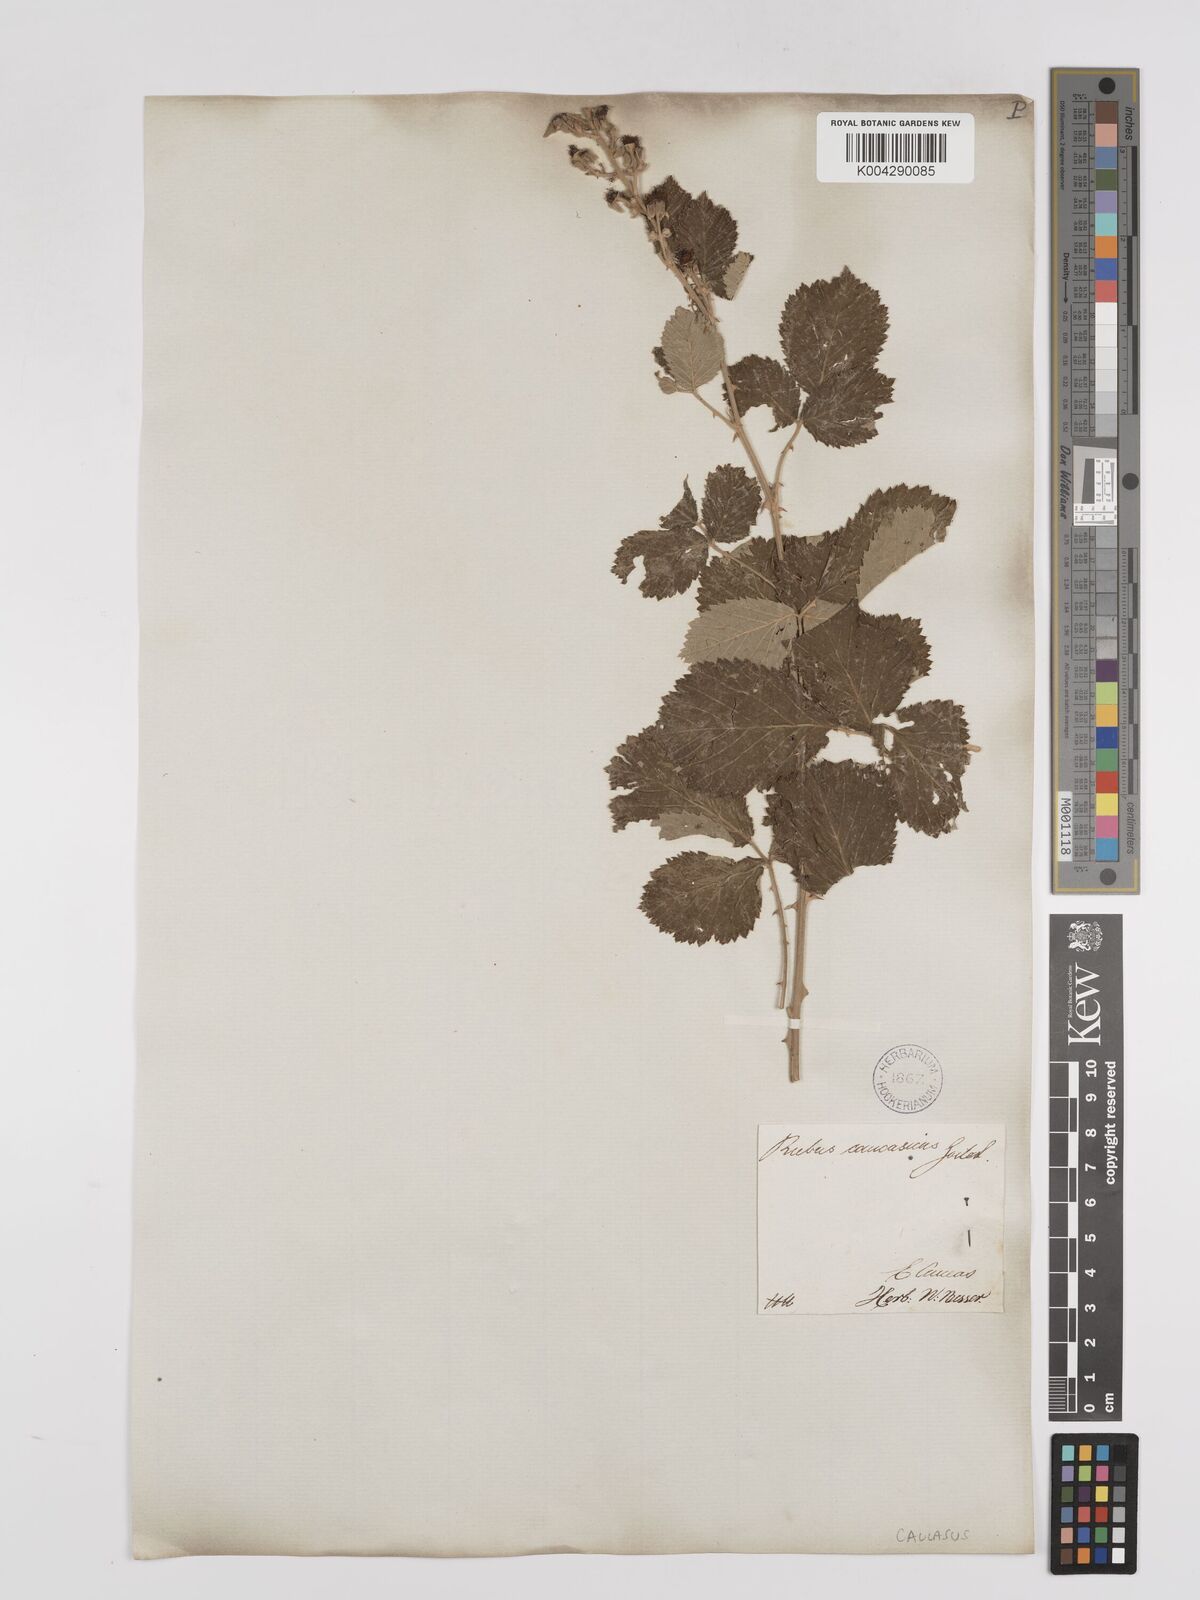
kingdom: Plantae
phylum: Tracheophyta
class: Magnoliopsida
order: Rosales
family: Rosaceae
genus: Rubus
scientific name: Rubus sanctus
